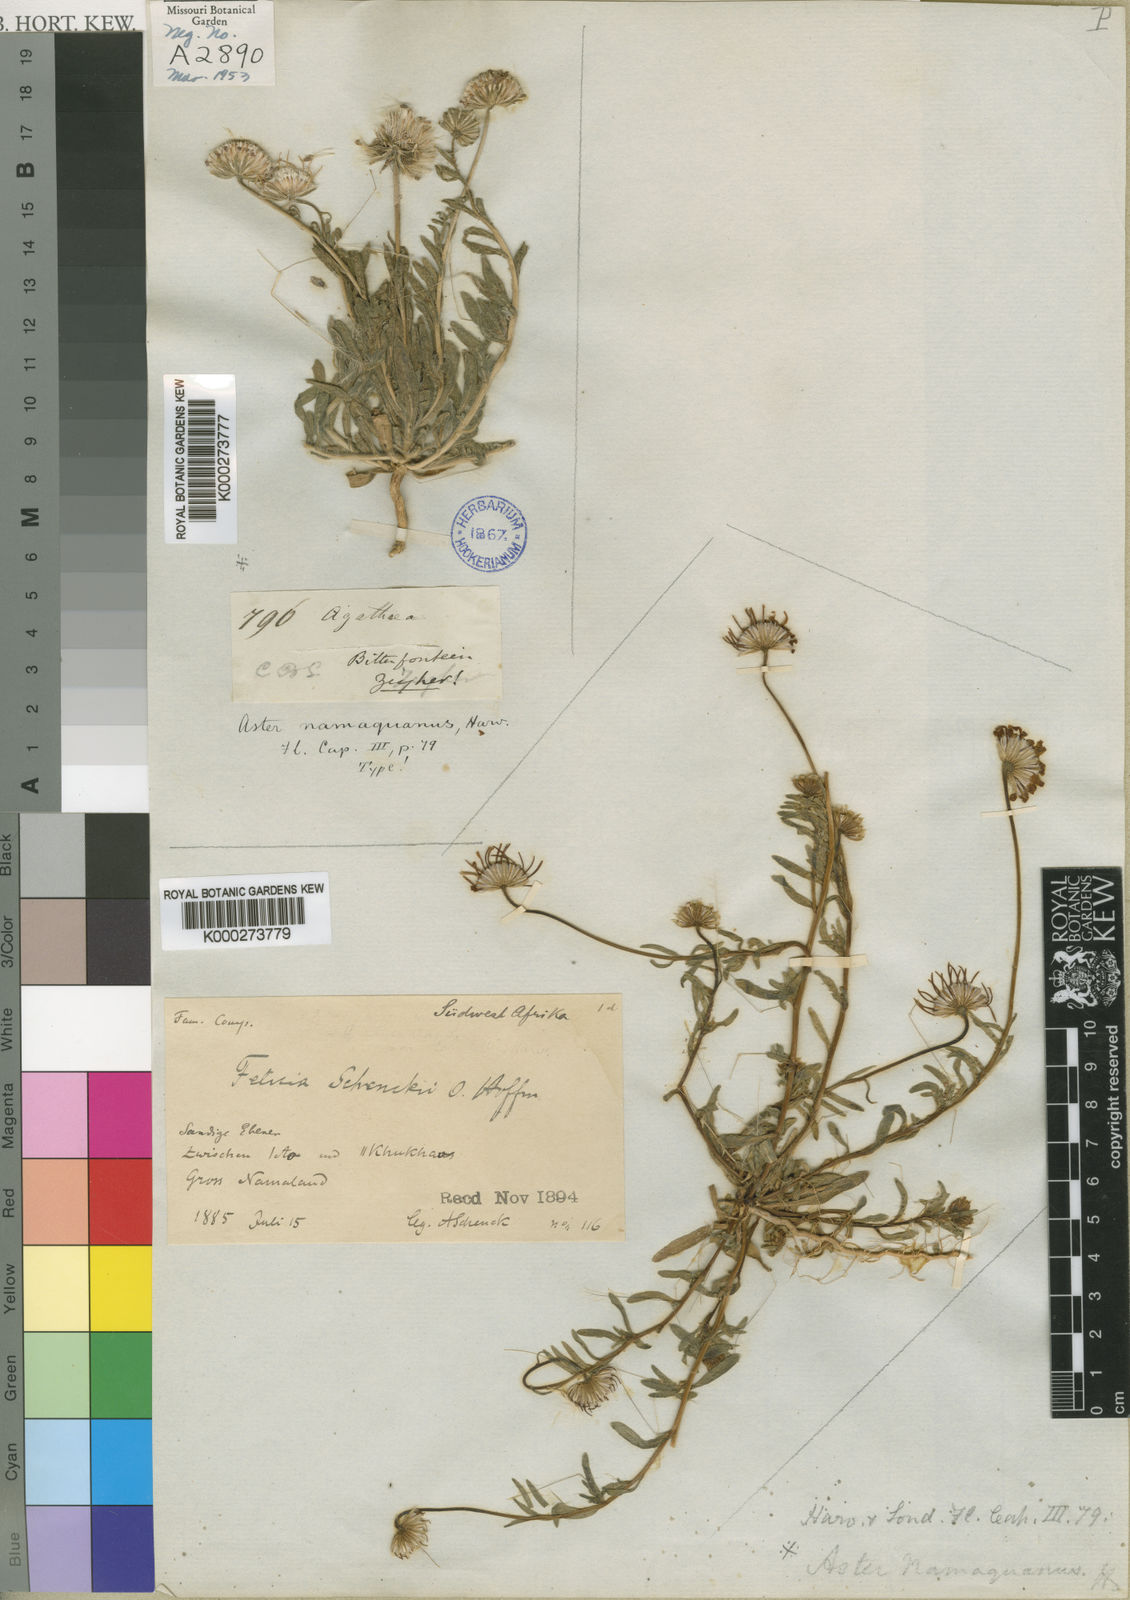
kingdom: Plantae
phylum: Tracheophyta
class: Magnoliopsida
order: Asterales
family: Asteraceae
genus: Felicia
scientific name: Felicia namaquana
